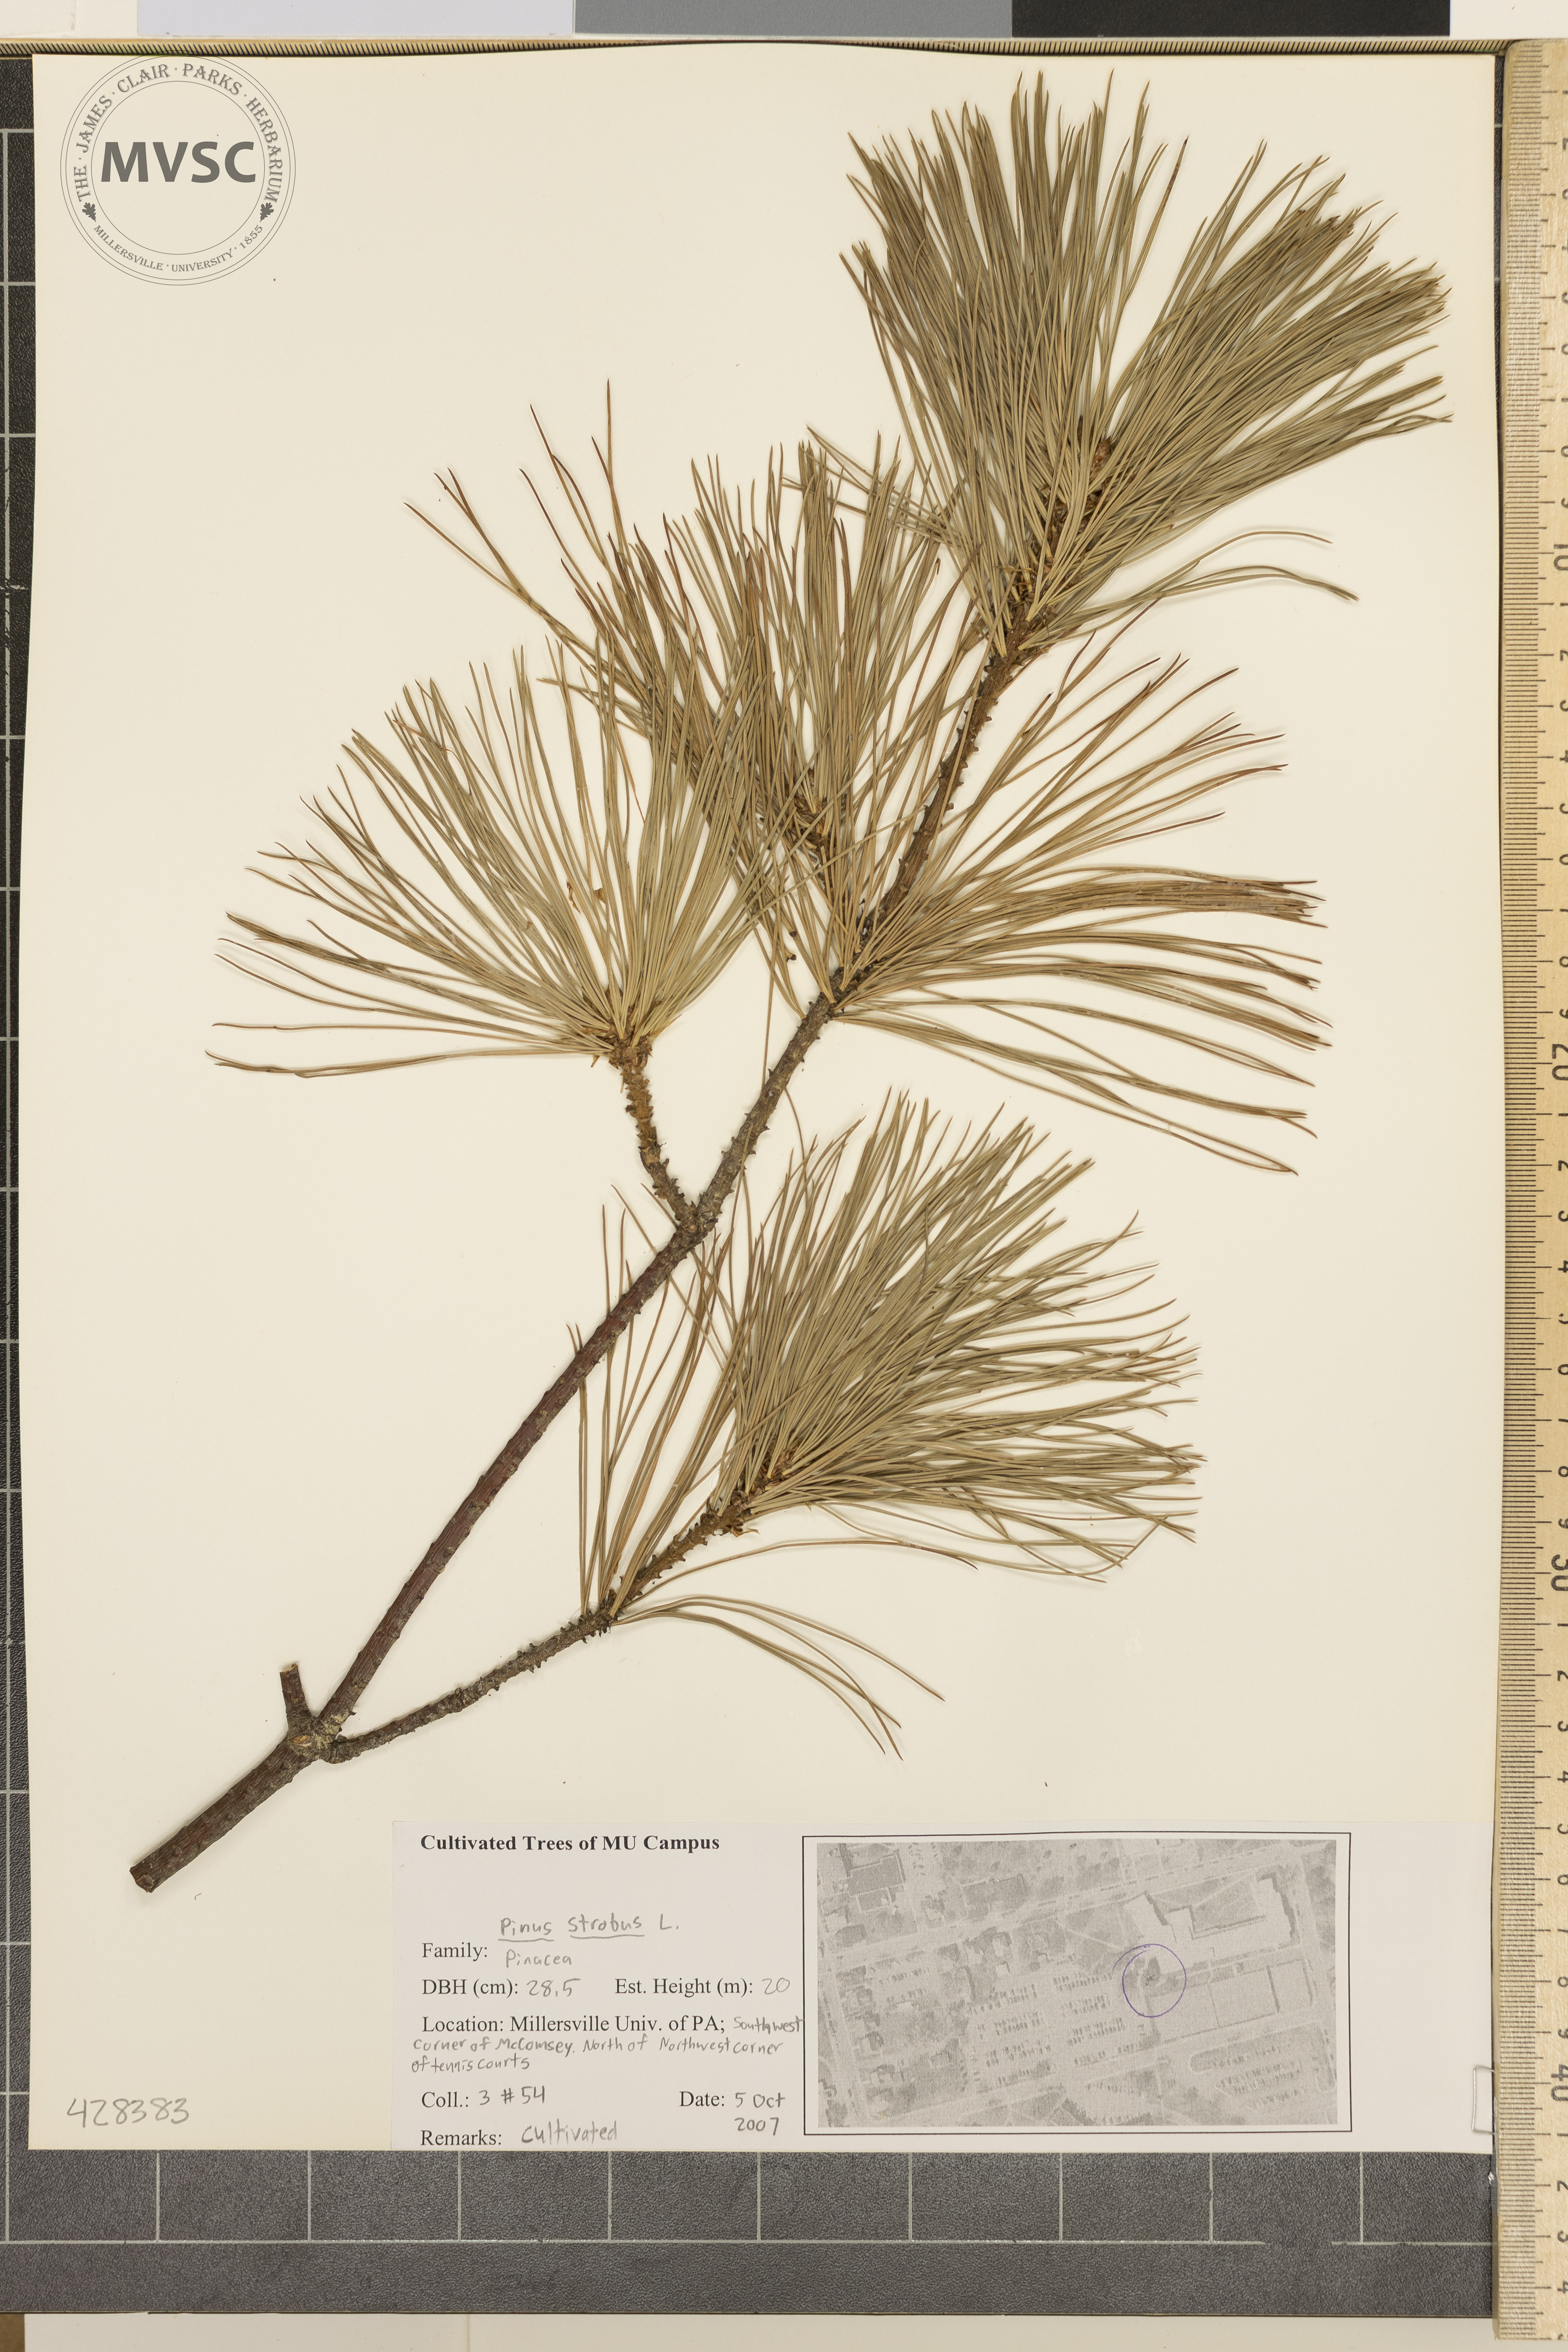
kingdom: Plantae
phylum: Tracheophyta
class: Pinopsida
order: Pinales
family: Pinaceae
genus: Pinus
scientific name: Pinus strobus
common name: Eastern White Pine
